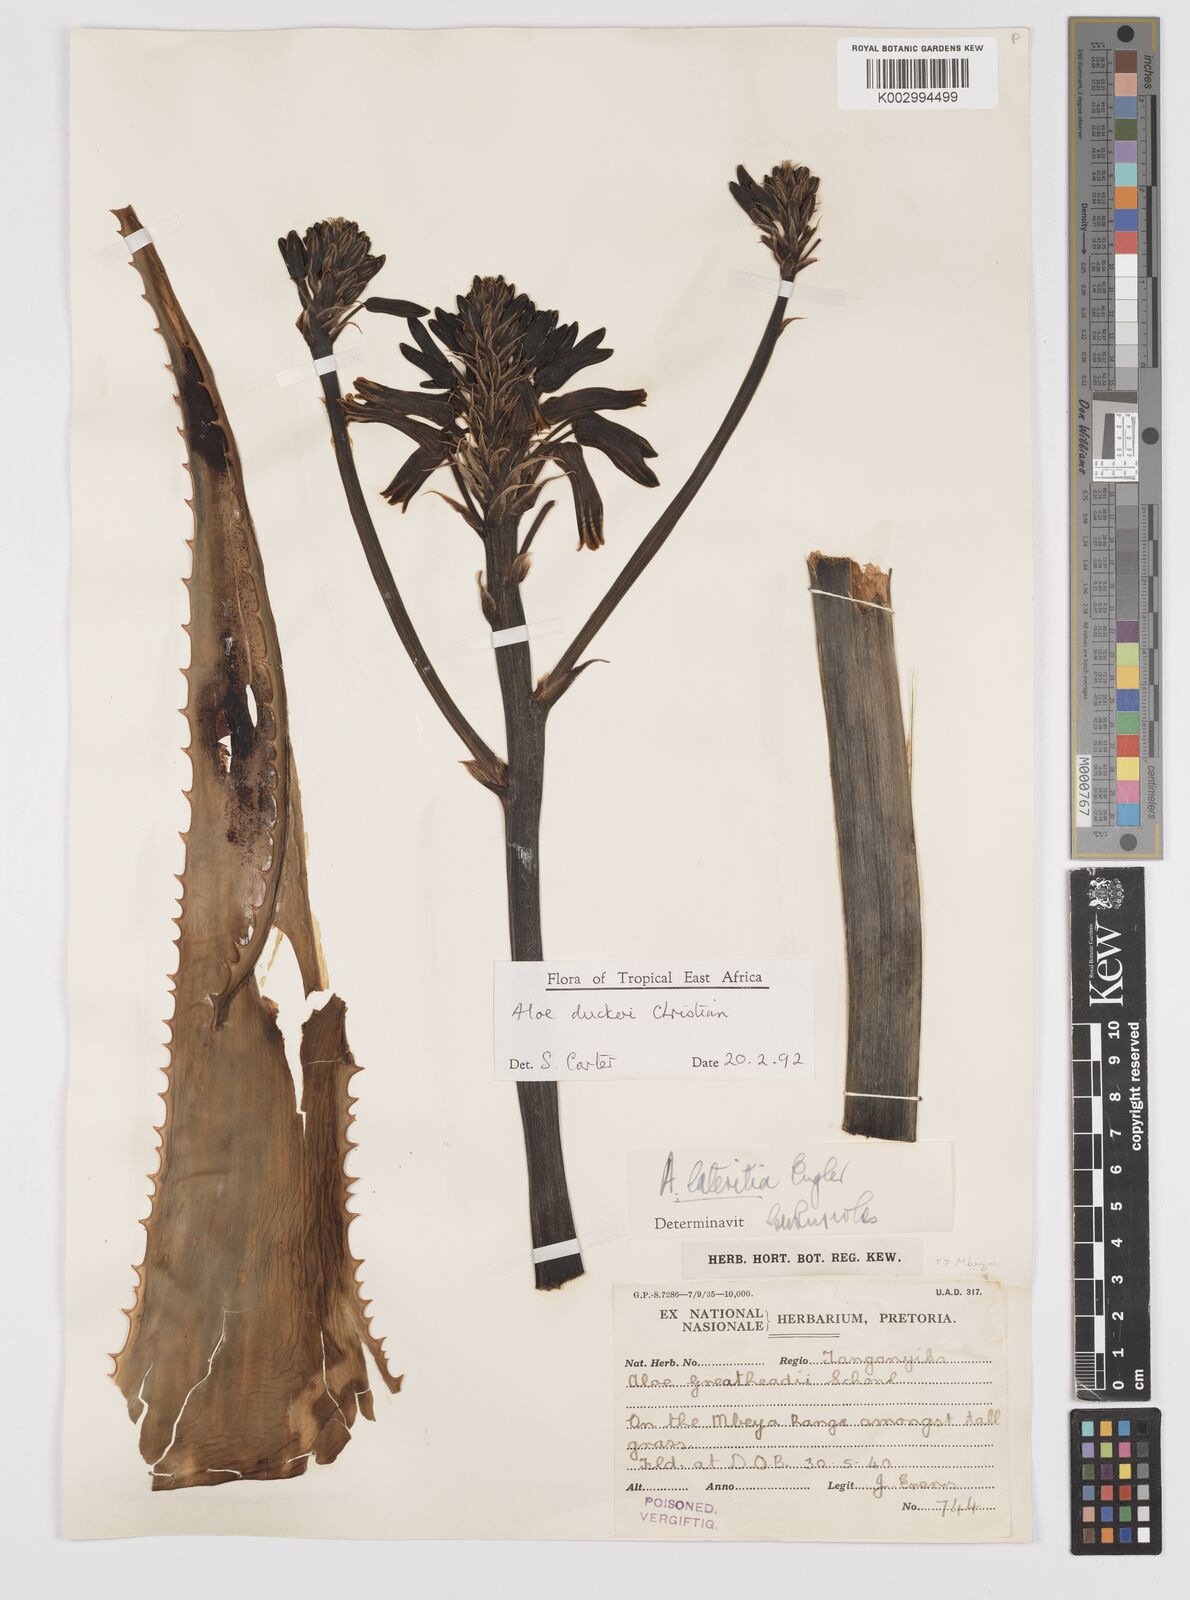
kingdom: Plantae
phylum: Tracheophyta
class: Liliopsida
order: Asparagales
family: Asphodelaceae
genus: Aloe
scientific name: Aloe duckeri
